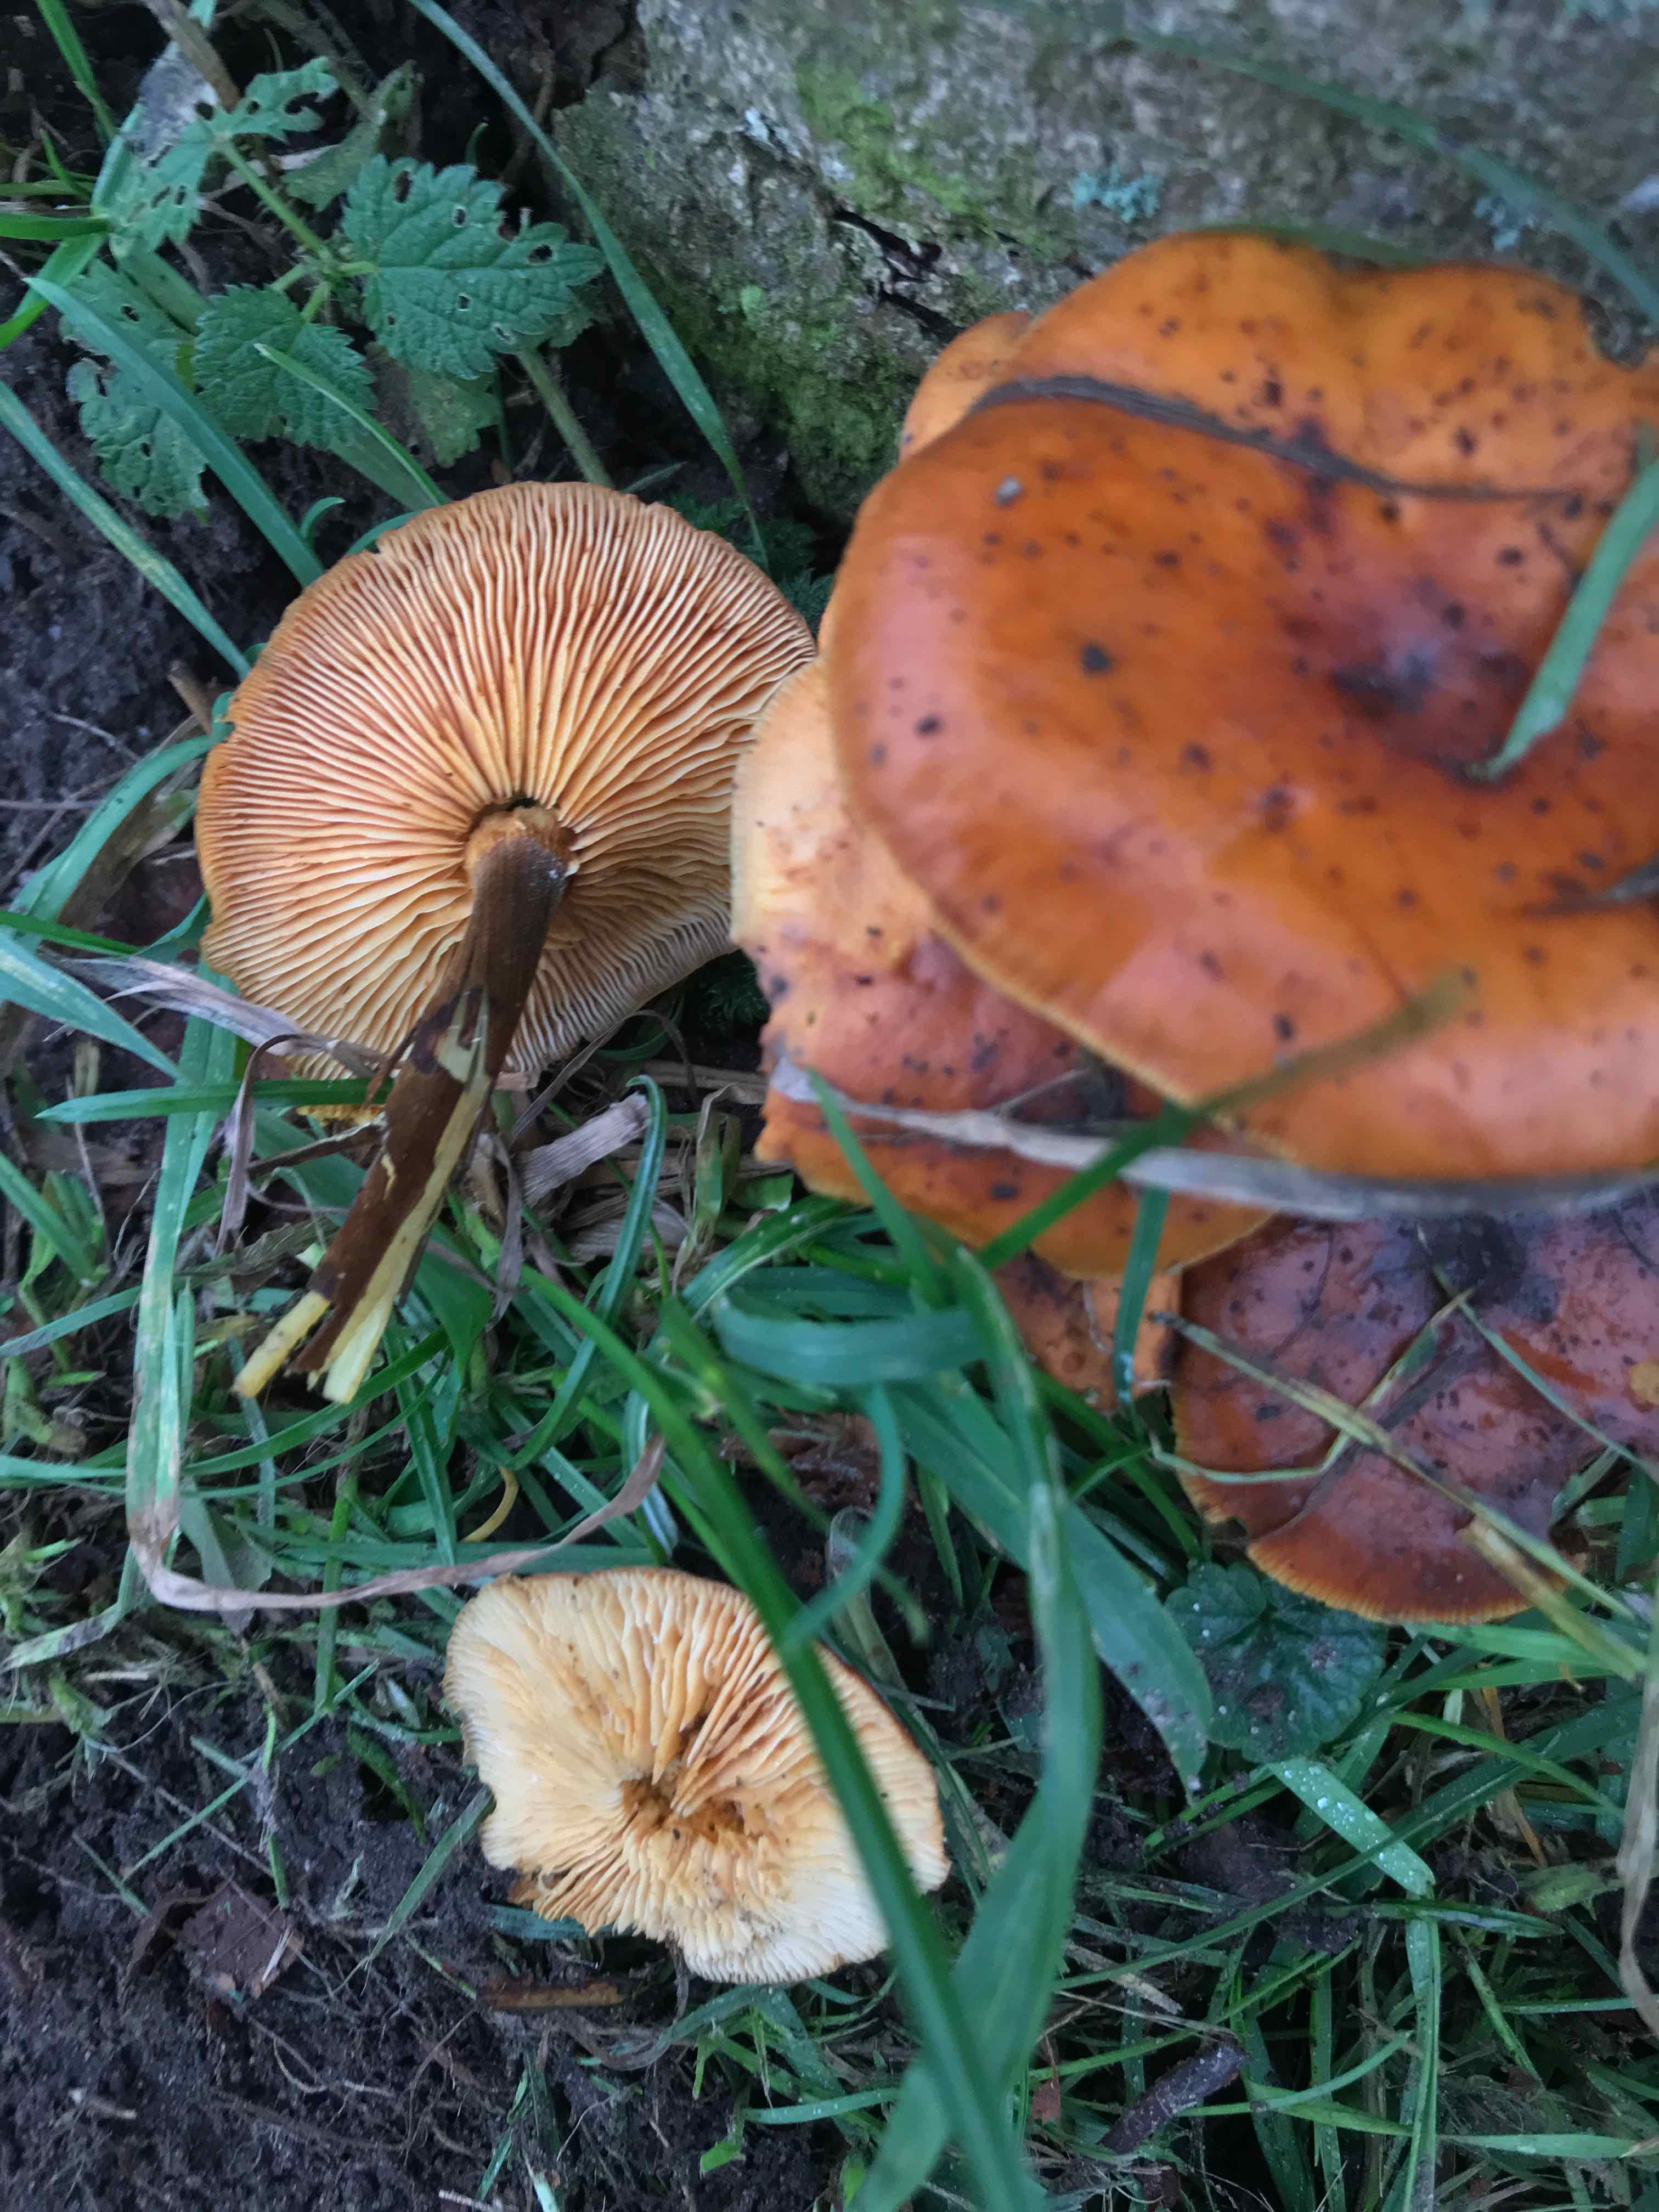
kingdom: Fungi
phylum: Basidiomycota
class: Agaricomycetes
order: Agaricales
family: Physalacriaceae
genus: Flammulina
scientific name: Flammulina velutipes
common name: gul fløjlsfod
